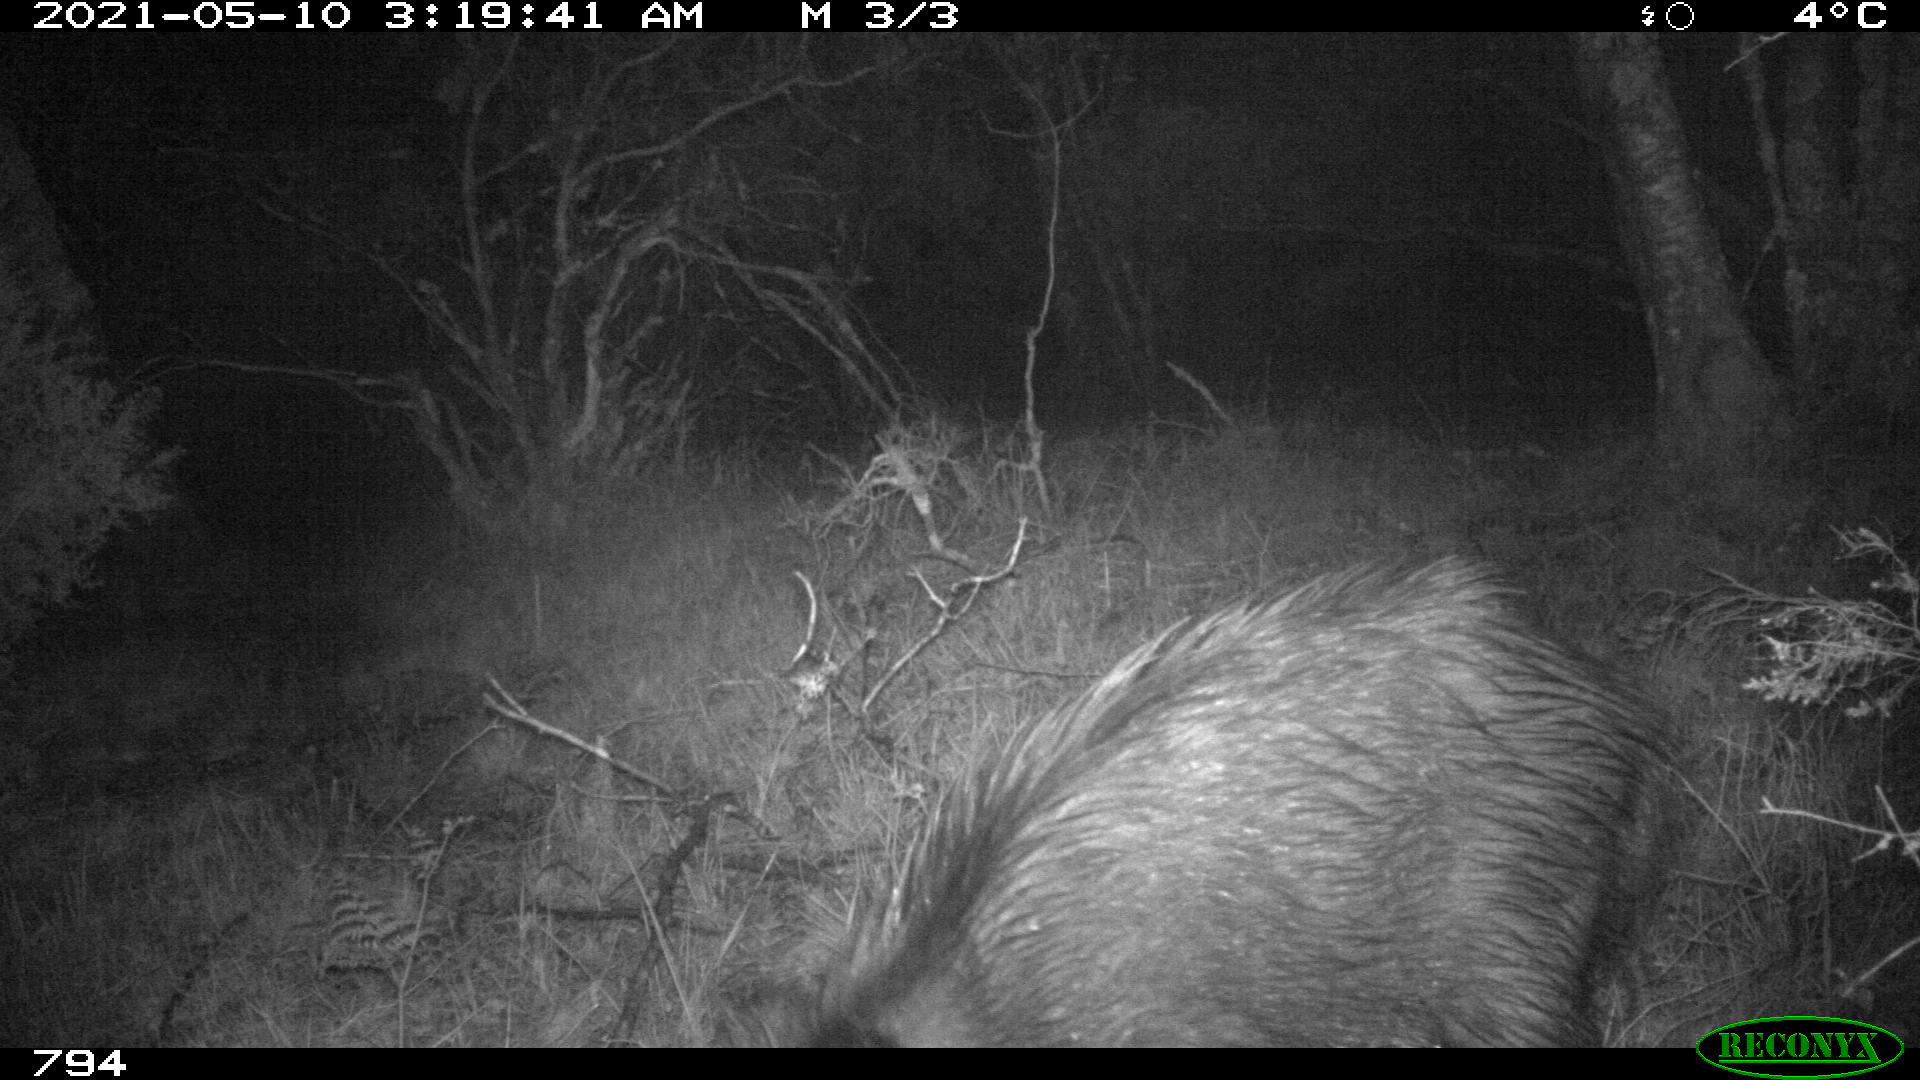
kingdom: Animalia
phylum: Chordata
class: Mammalia
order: Artiodactyla
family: Suidae
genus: Sus
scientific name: Sus scrofa
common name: Wild boar
